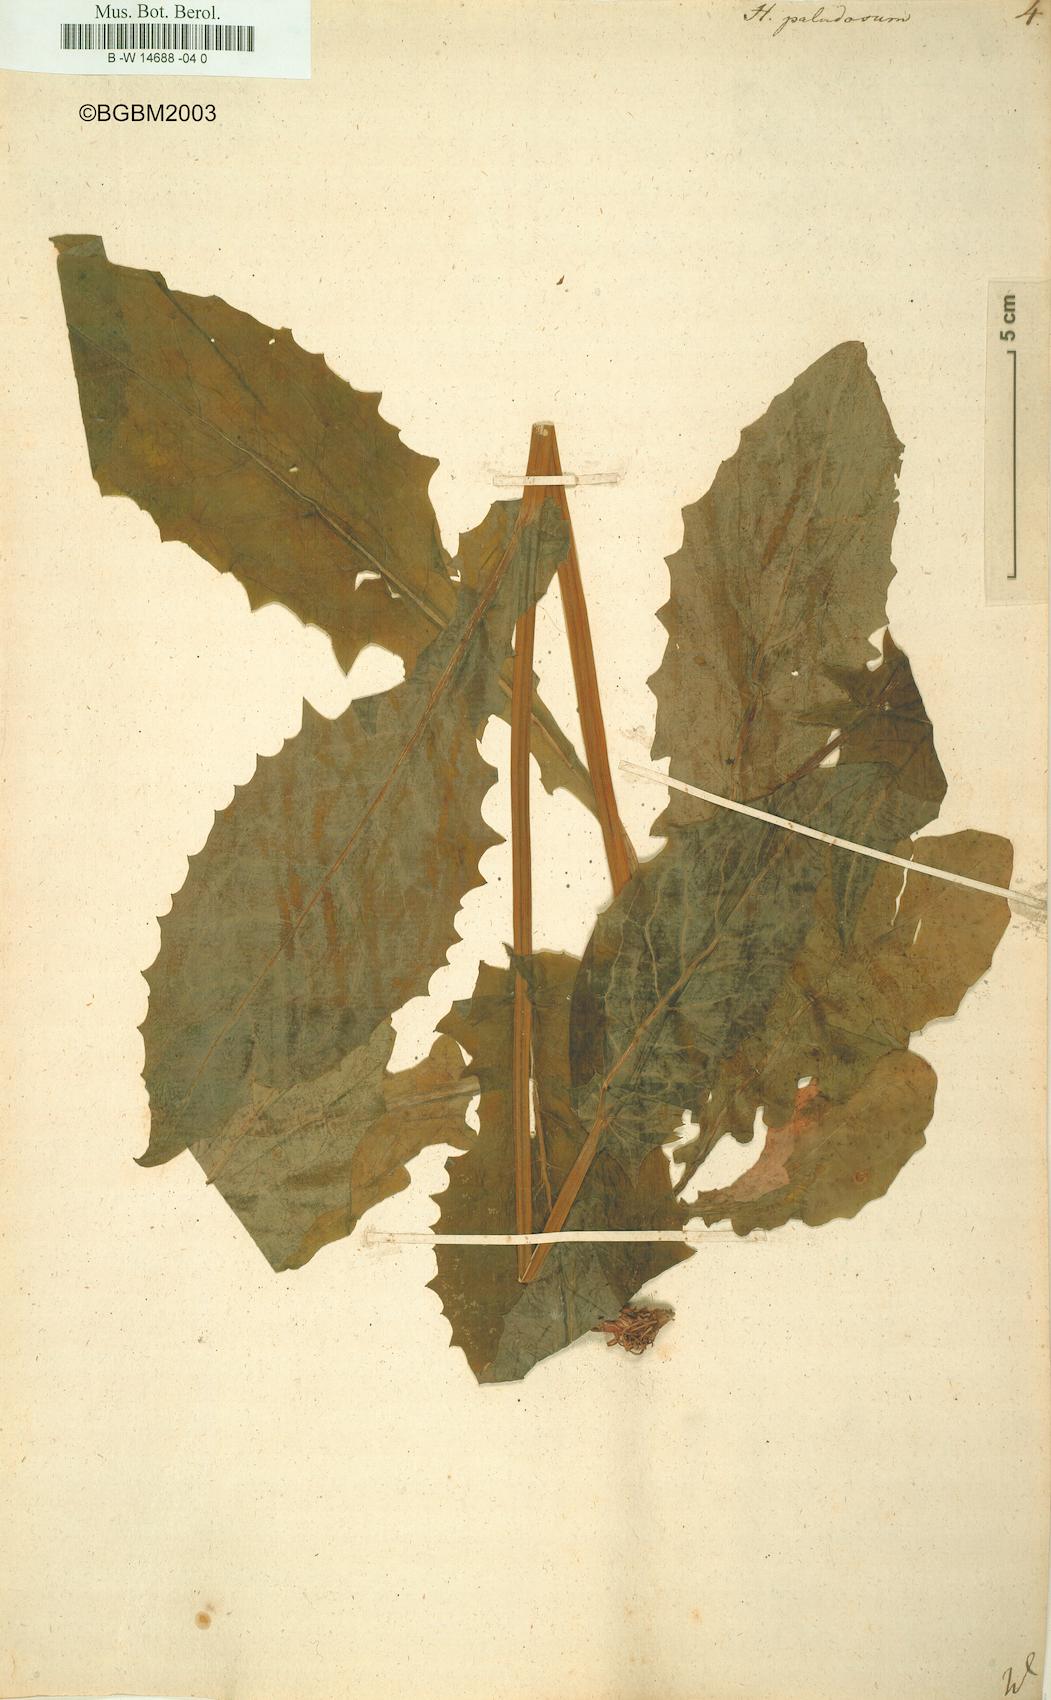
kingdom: Plantae
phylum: Tracheophyta
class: Magnoliopsida
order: Asterales
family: Asteraceae
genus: Crepis
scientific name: Crepis paludosa
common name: Marsh hawk's-beard
